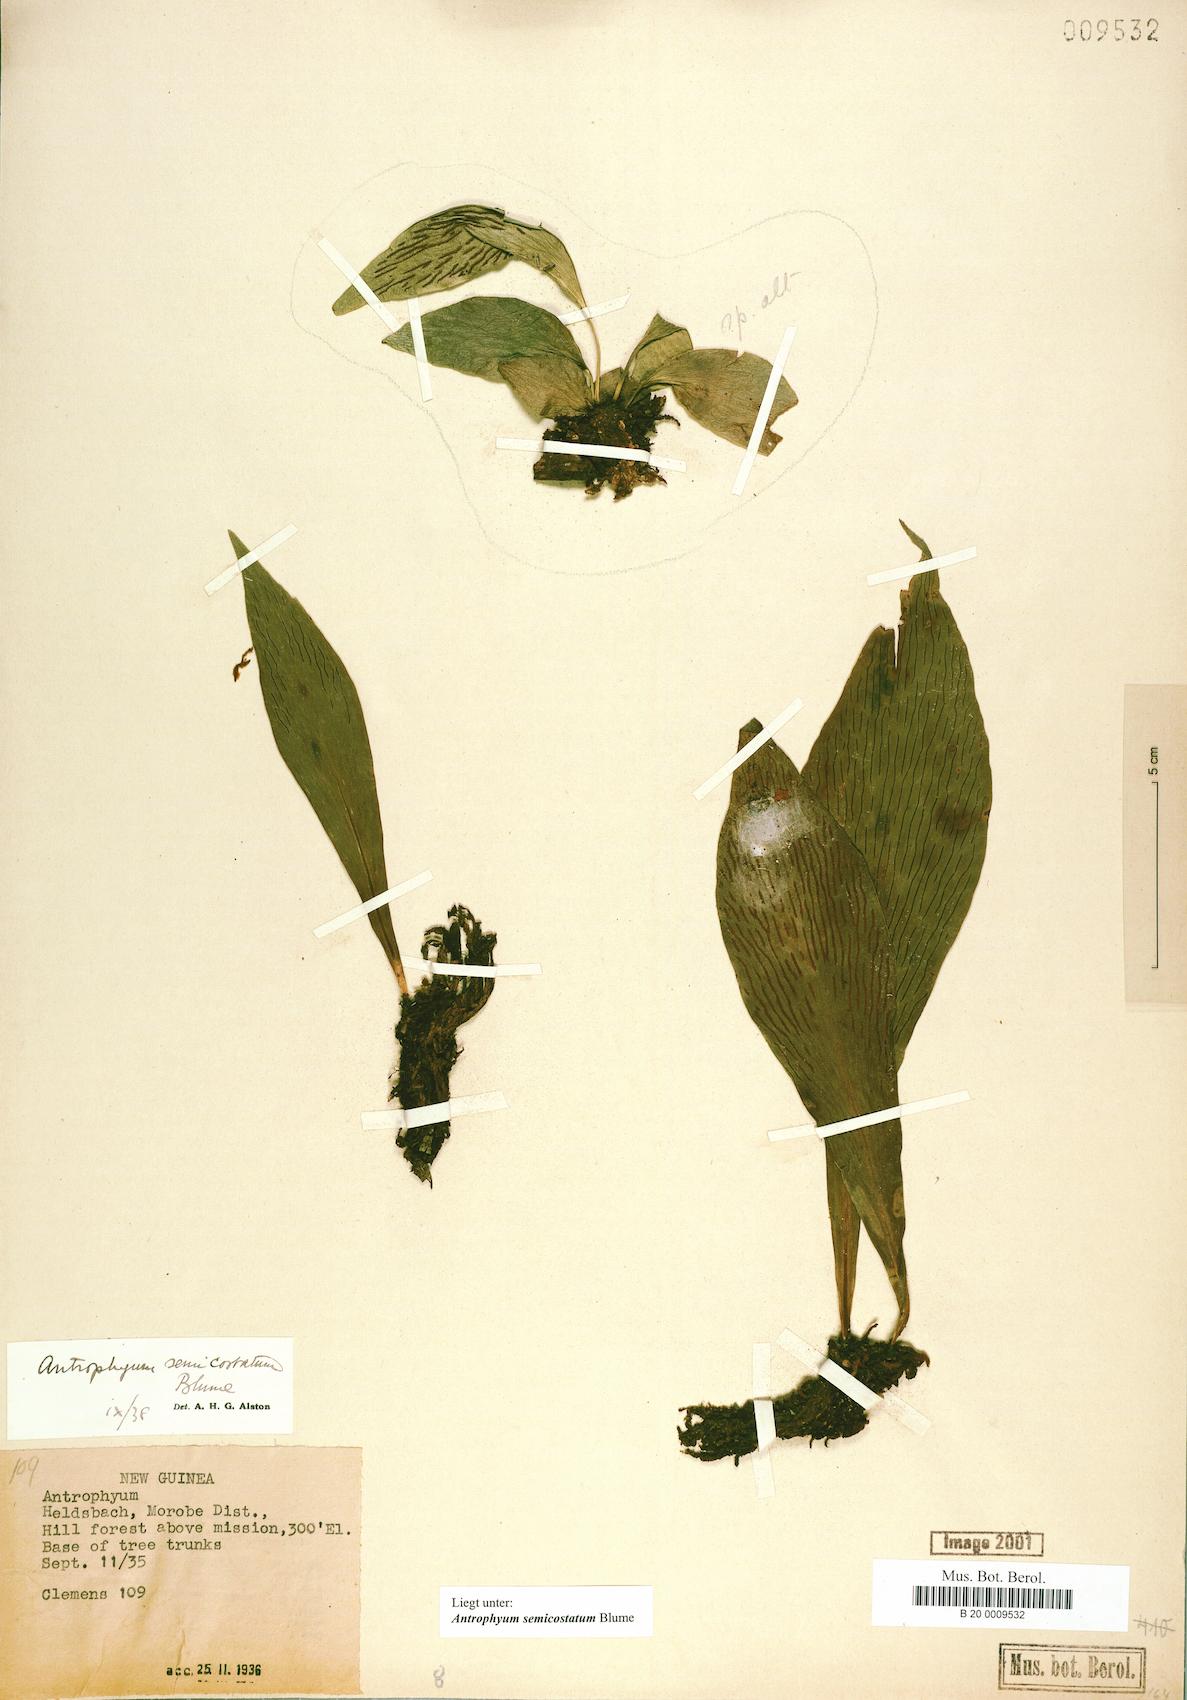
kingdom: Plantae
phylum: Tracheophyta
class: Polypodiopsida
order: Polypodiales
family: Pteridaceae
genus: Antrophyum
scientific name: Antrophyum semicostatum
